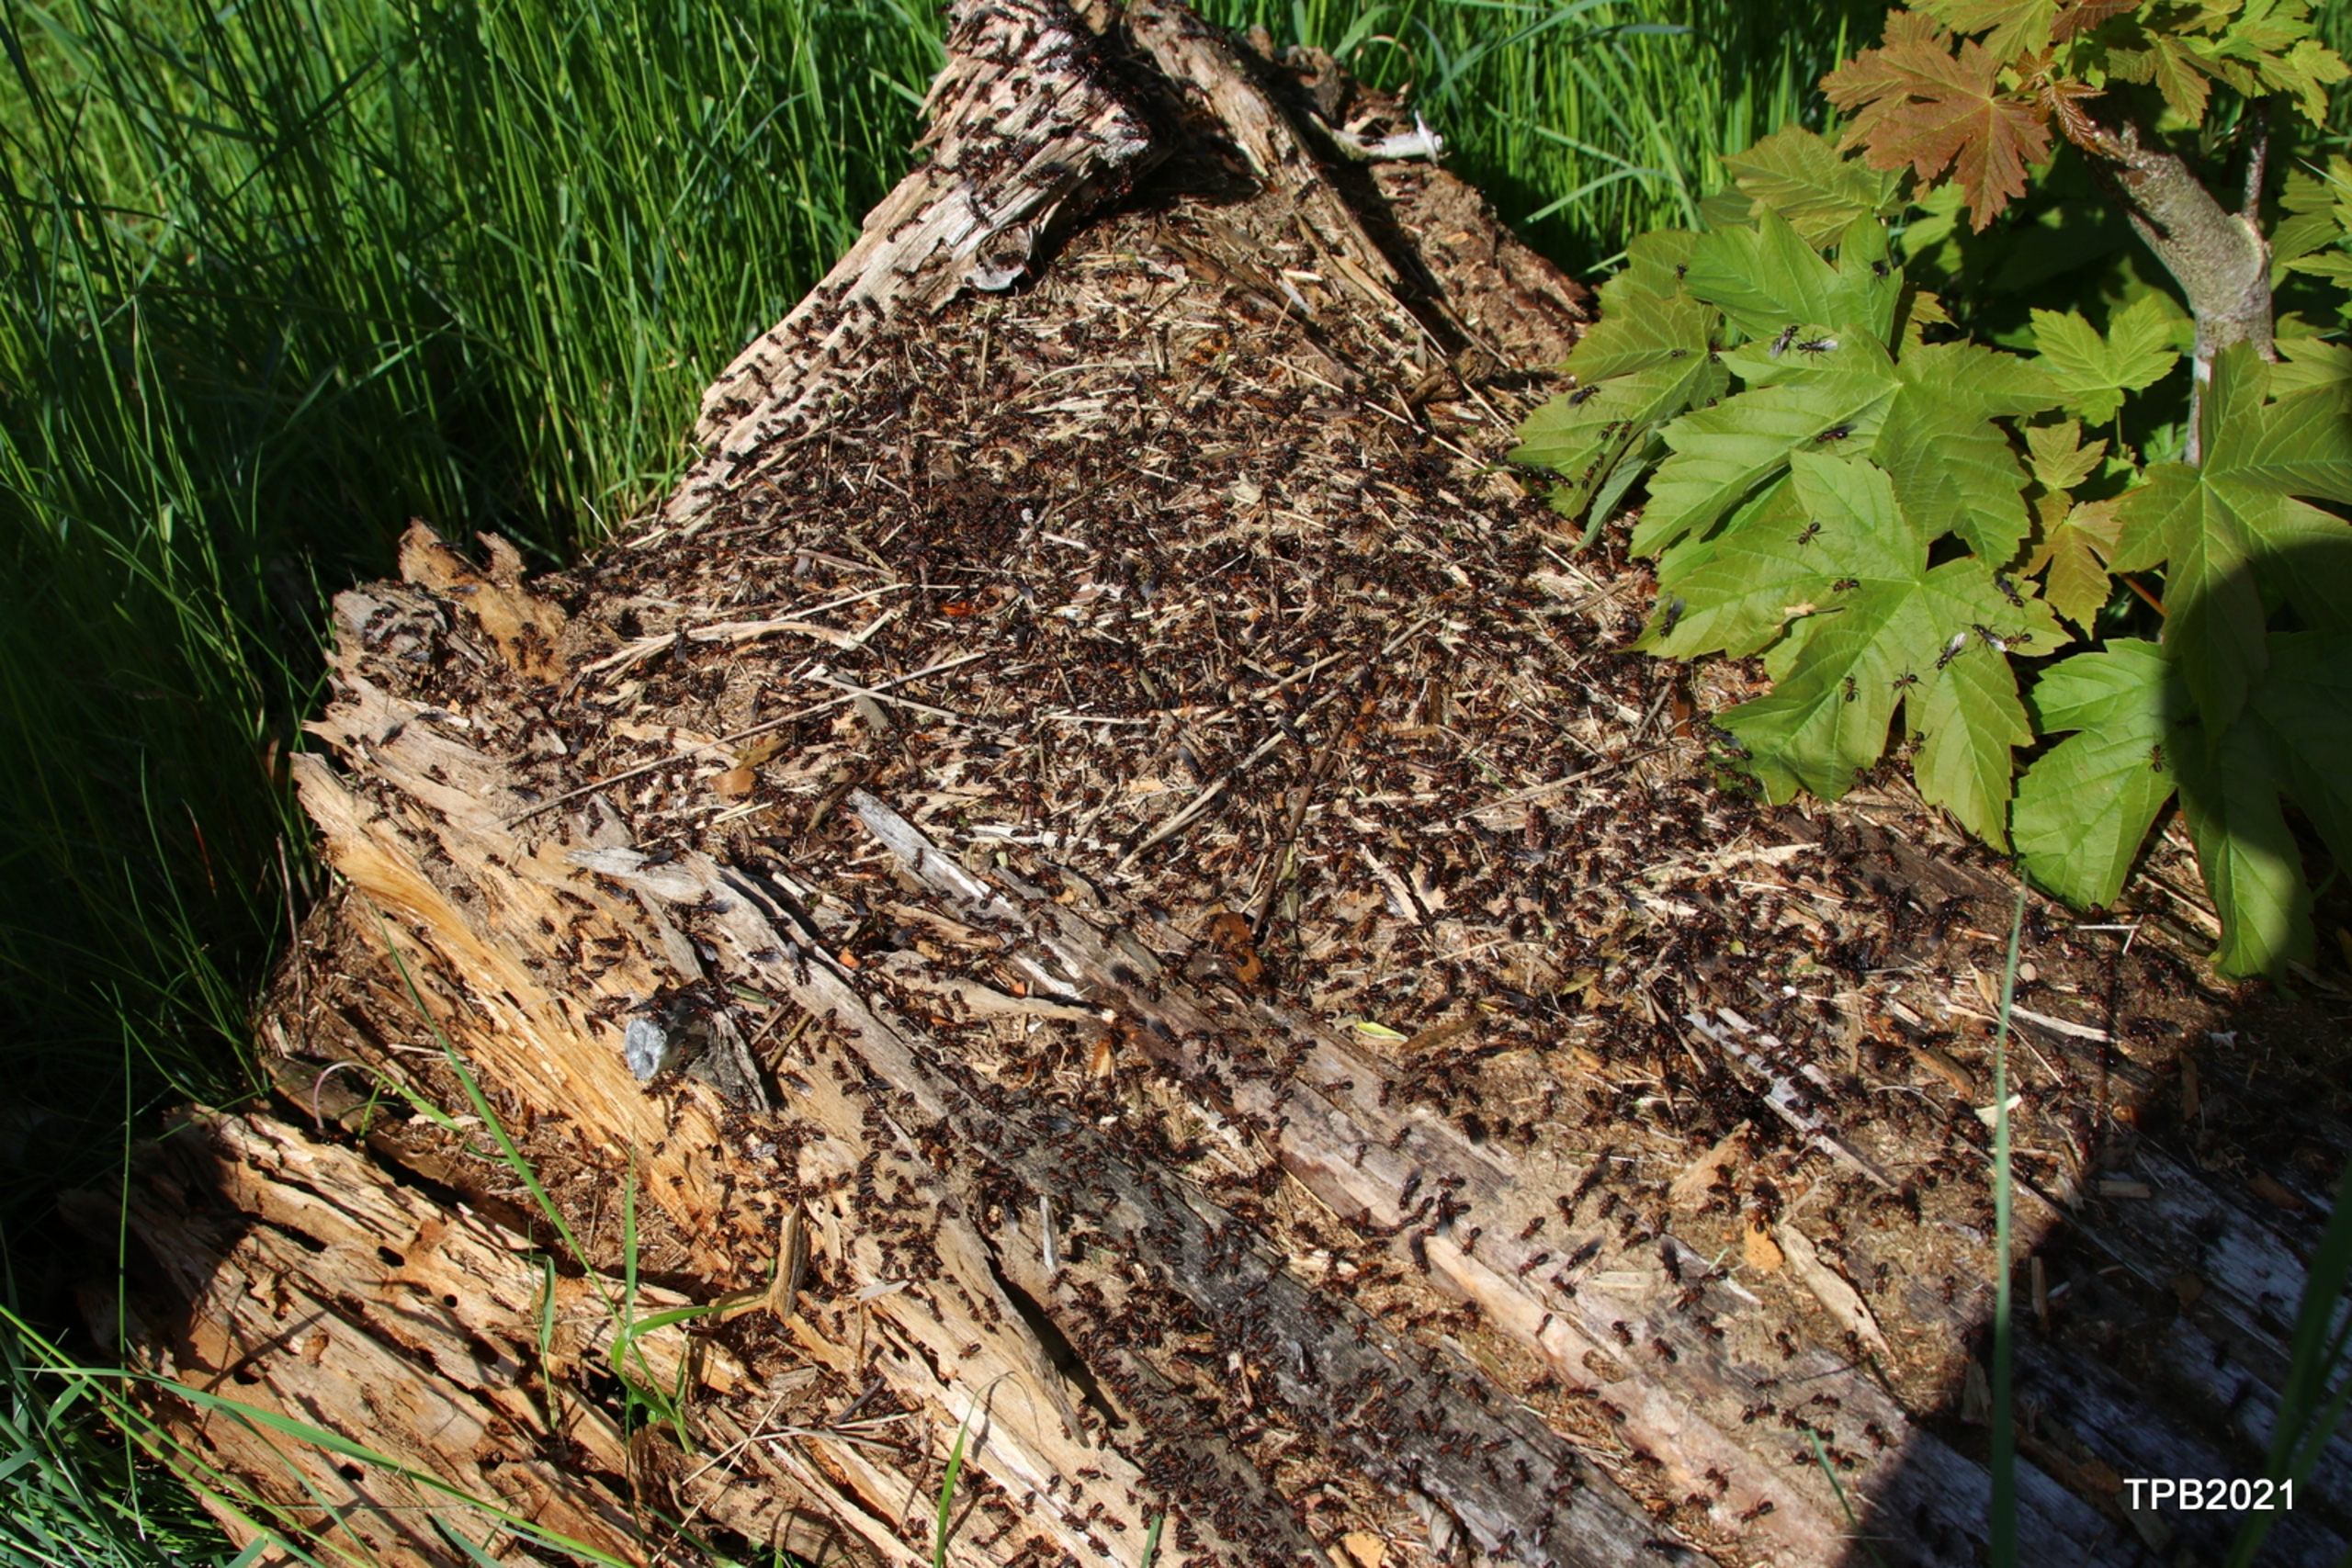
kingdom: Animalia
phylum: Arthropoda
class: Insecta
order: Hymenoptera
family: Formicidae
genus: Formica
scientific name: Formica
